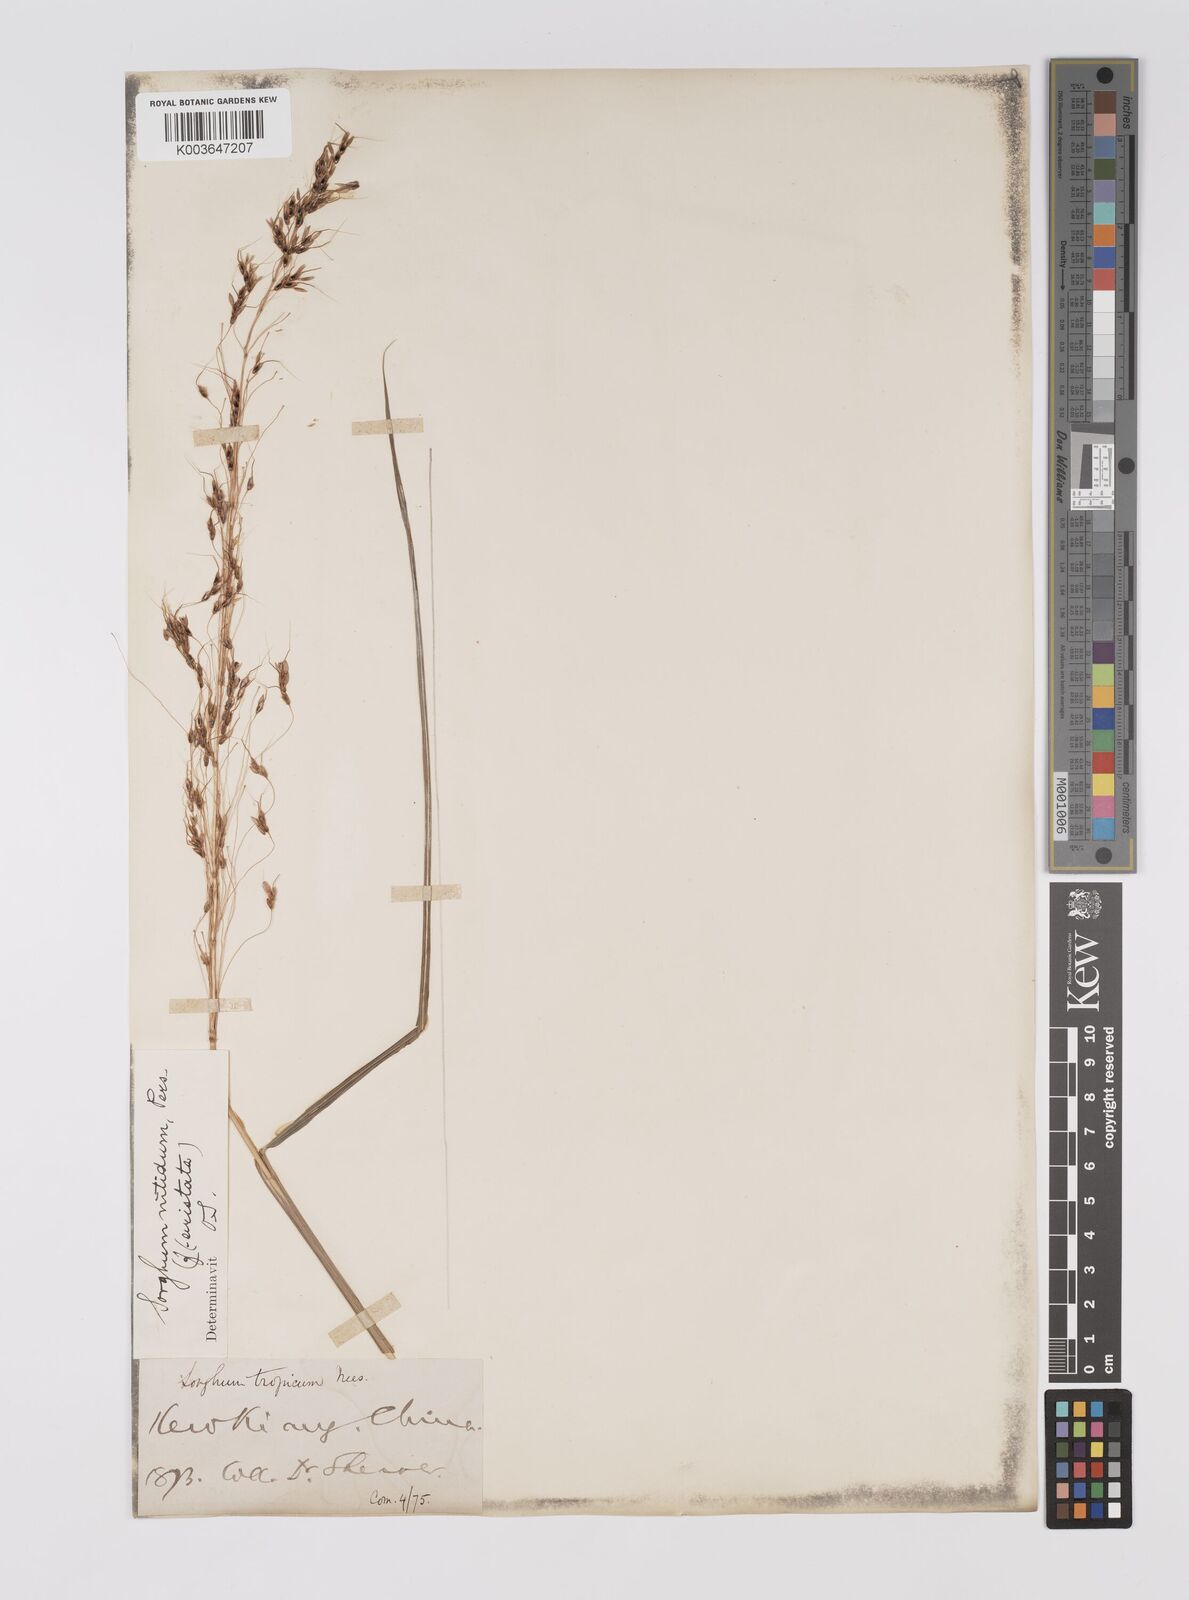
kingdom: Plantae
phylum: Tracheophyta
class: Liliopsida
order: Poales
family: Poaceae
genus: Sorghum
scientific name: Sorghum nitidum
